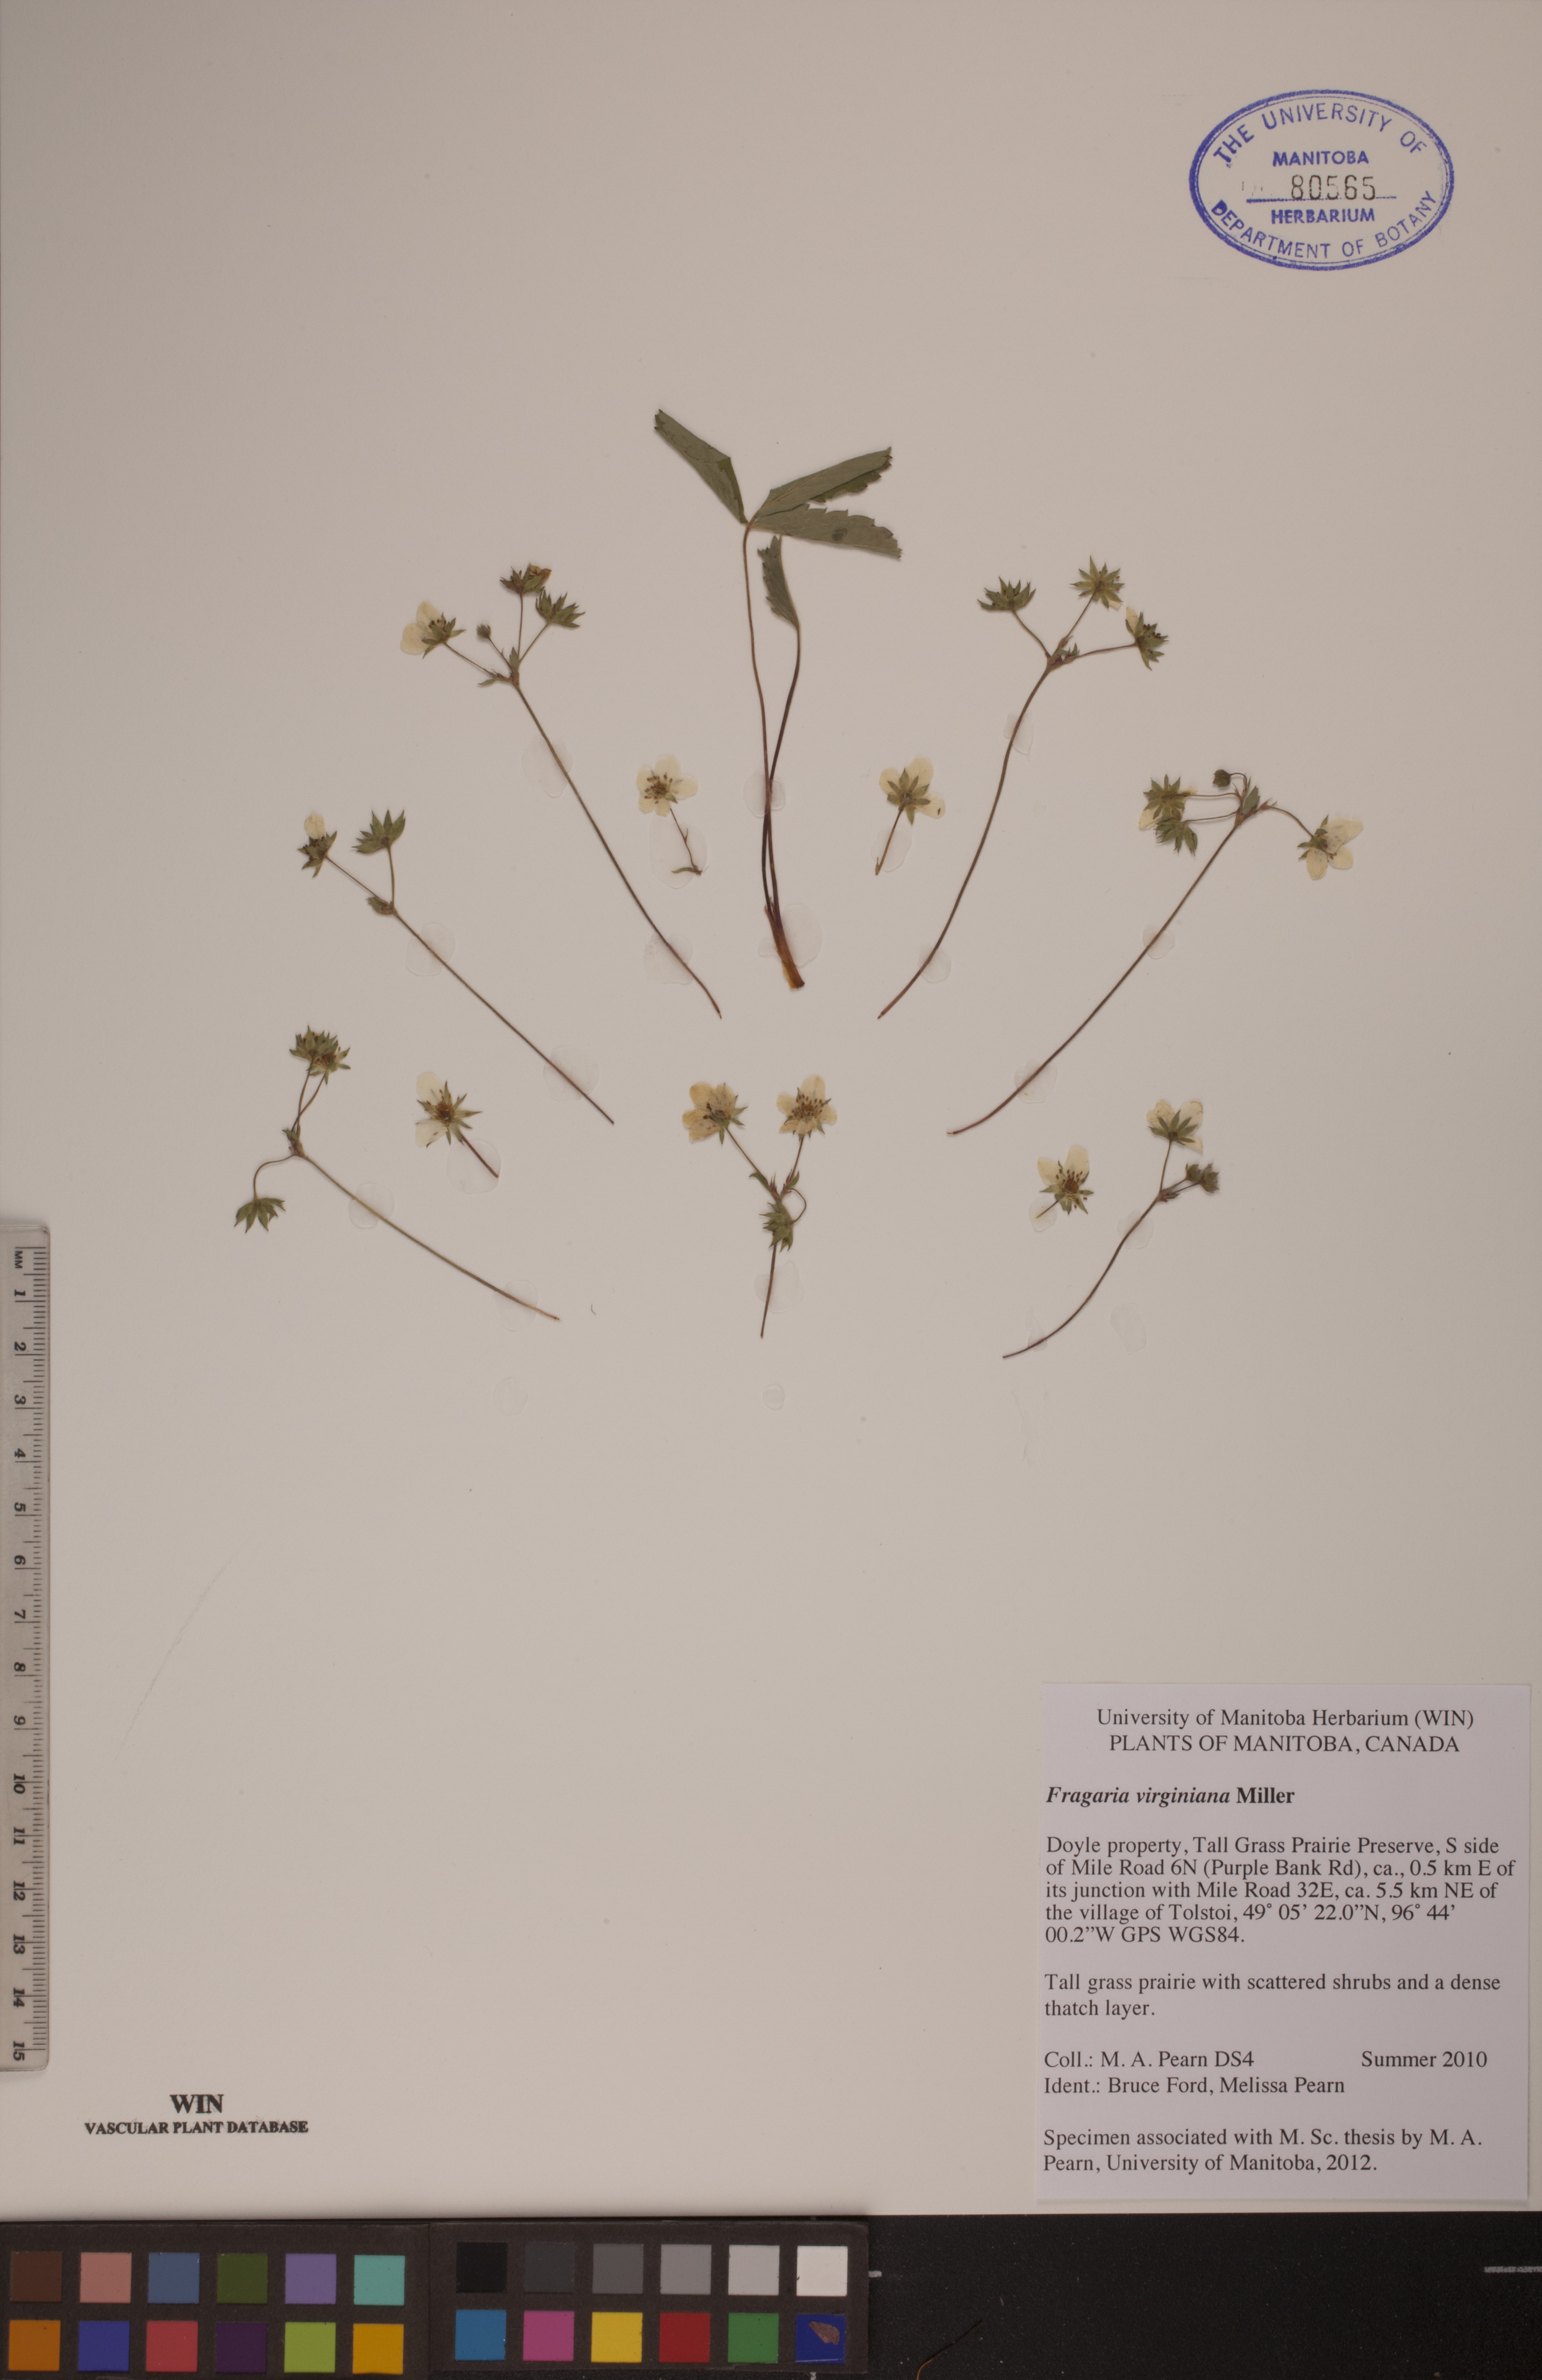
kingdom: Plantae
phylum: Tracheophyta
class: Magnoliopsida
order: Rosales
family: Rosaceae
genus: Fragaria
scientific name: Fragaria virginiana
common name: Thickleaved wild strawberry
